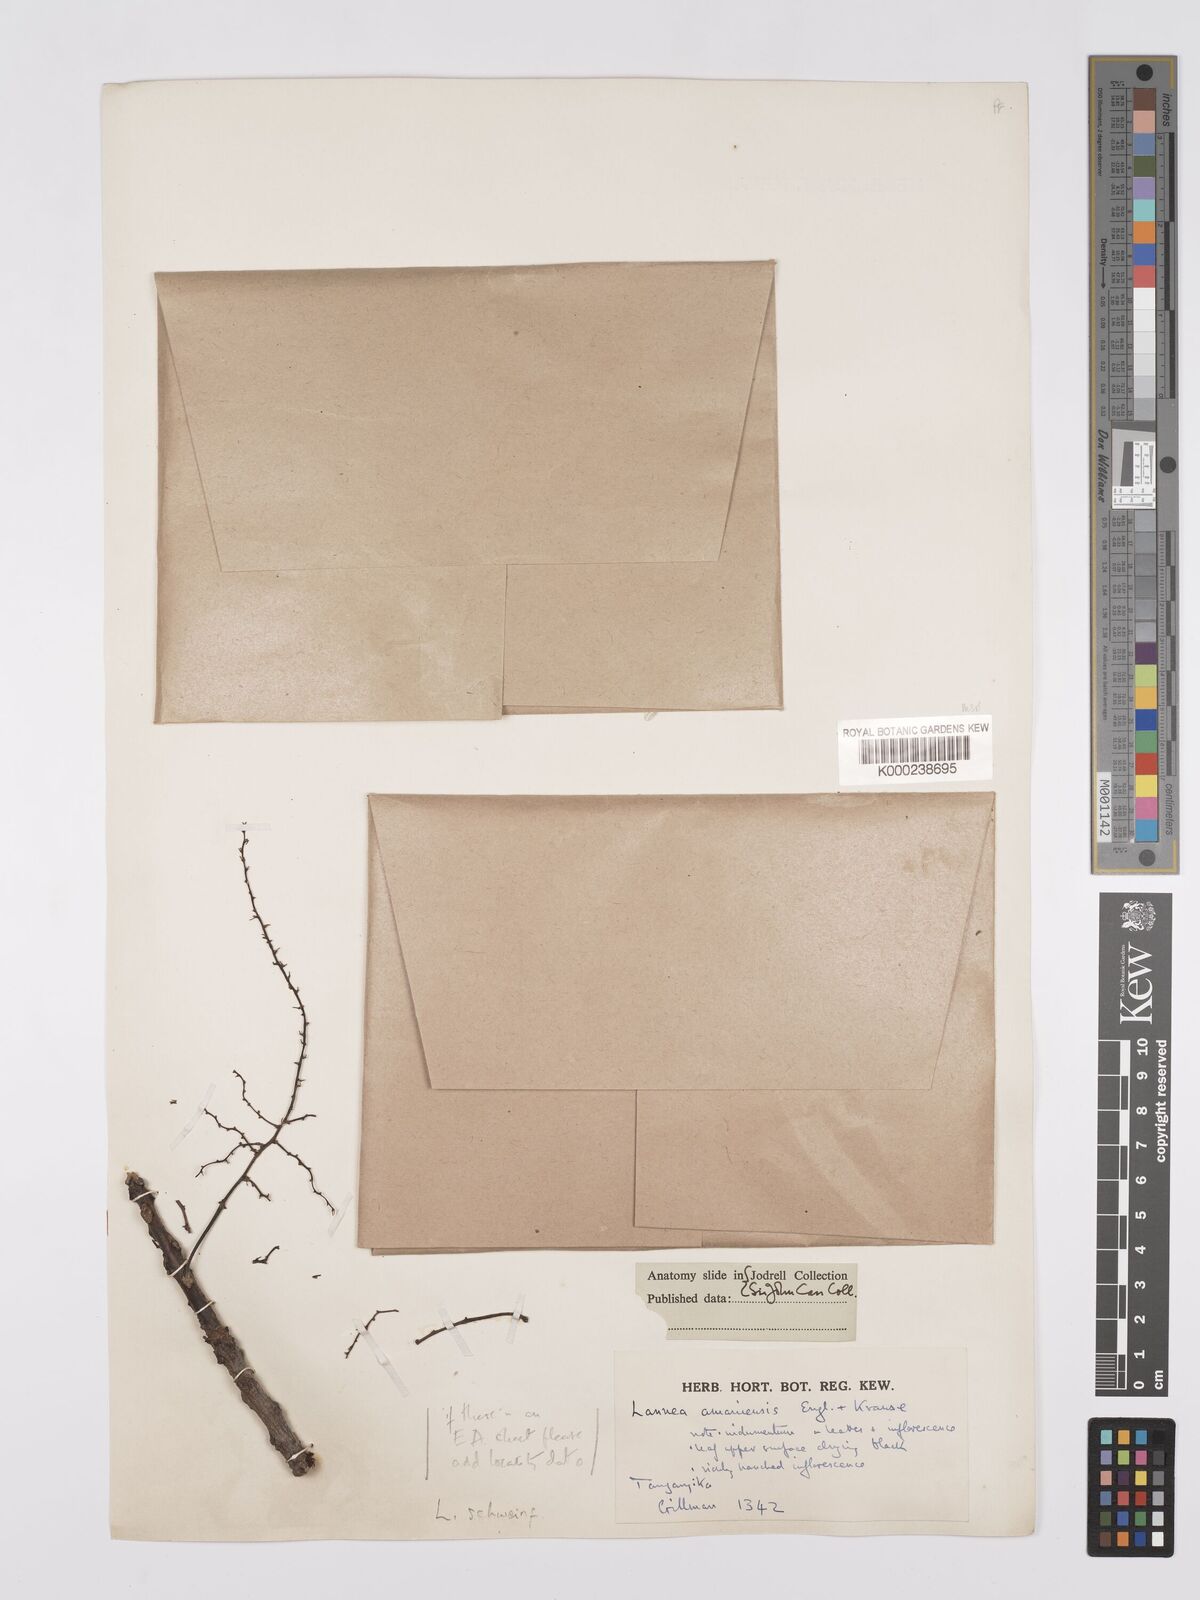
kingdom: Plantae
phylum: Tracheophyta
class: Magnoliopsida
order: Sapindales
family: Anacardiaceae
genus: Lannea
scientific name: Lannea schweinfurthii
